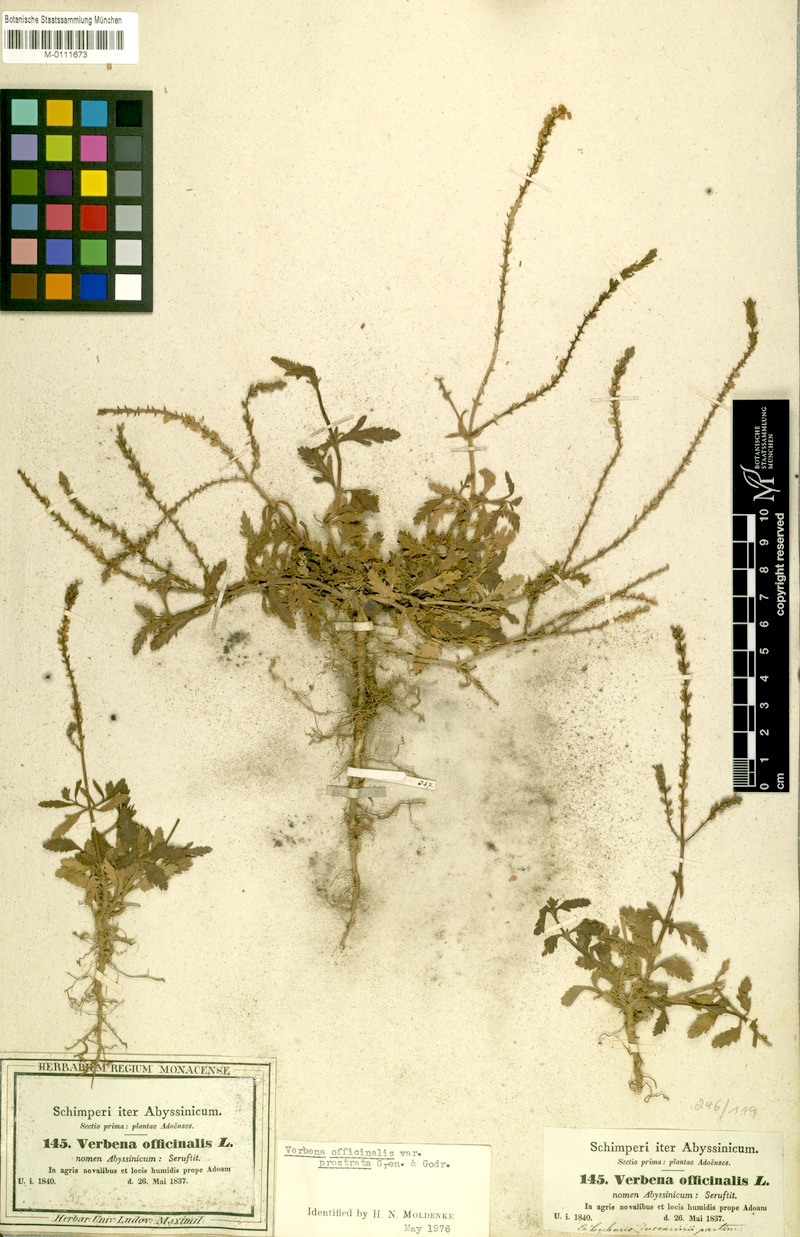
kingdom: Plantae
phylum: Tracheophyta
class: Magnoliopsida
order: Lamiales
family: Verbenaceae
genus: Verbena
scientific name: Verbena officinalis
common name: Vervain
